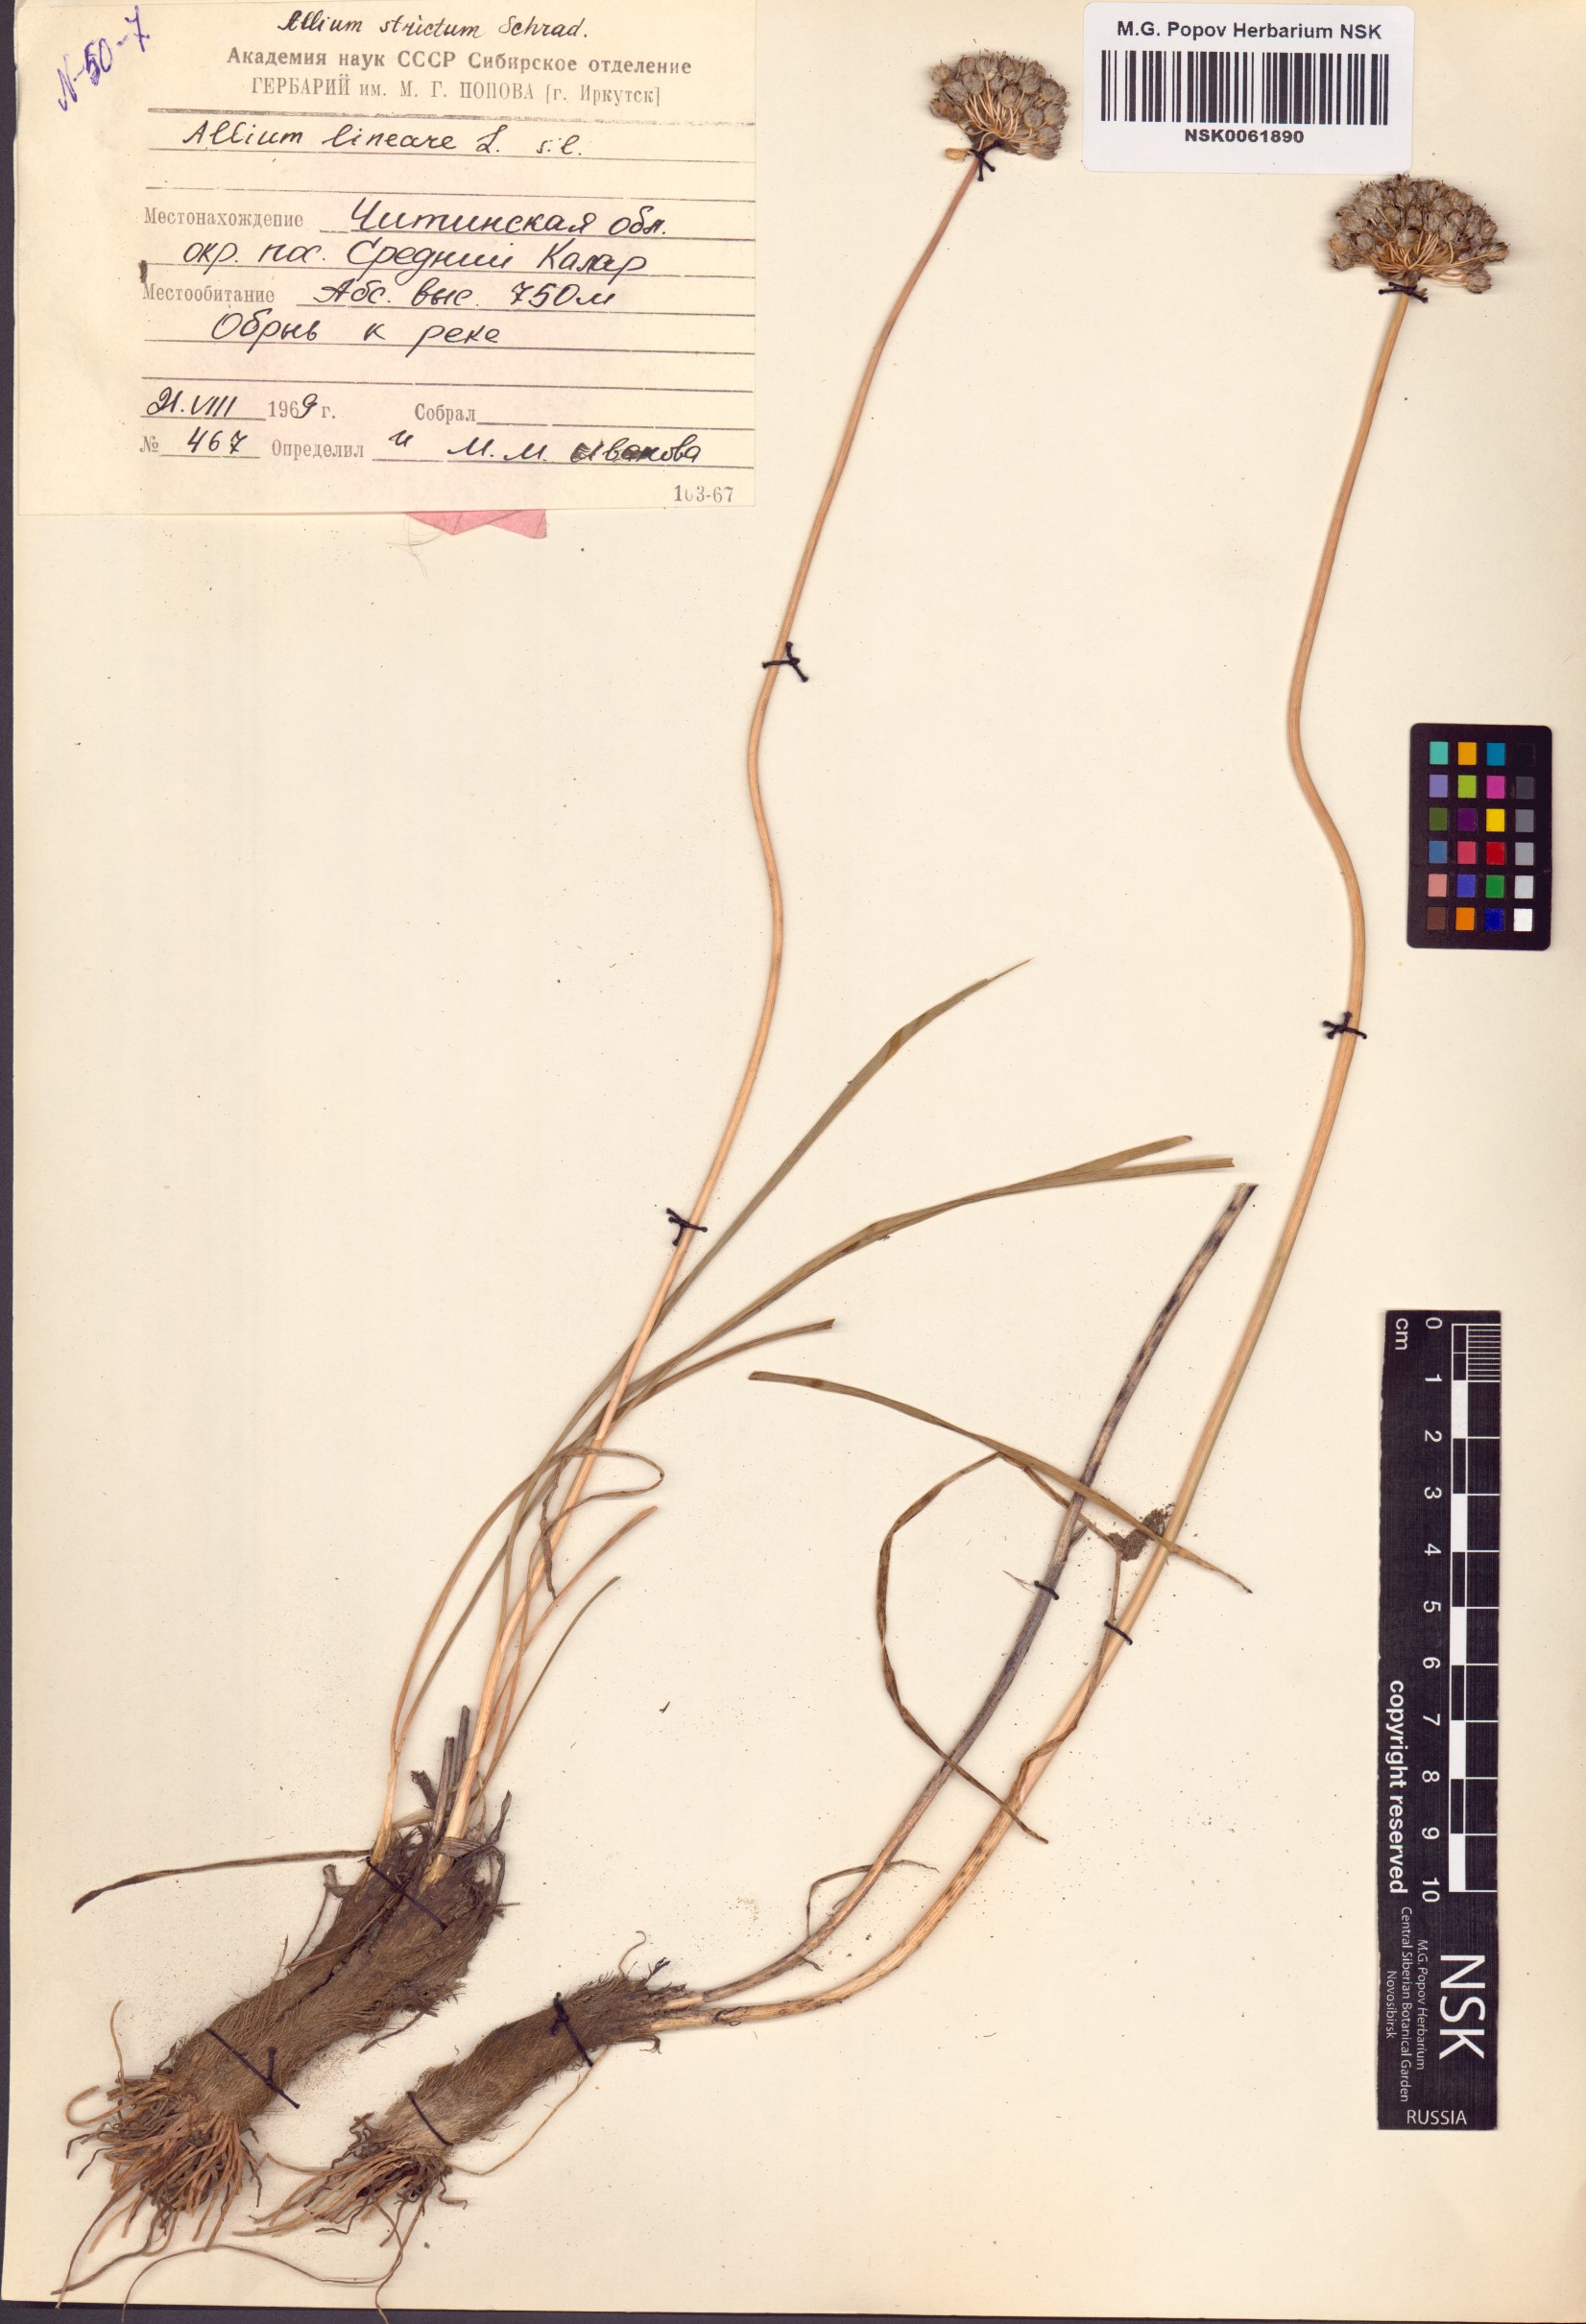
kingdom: Plantae
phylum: Tracheophyta
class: Liliopsida
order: Asparagales
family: Amaryllidaceae
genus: Allium
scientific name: Allium strictum
